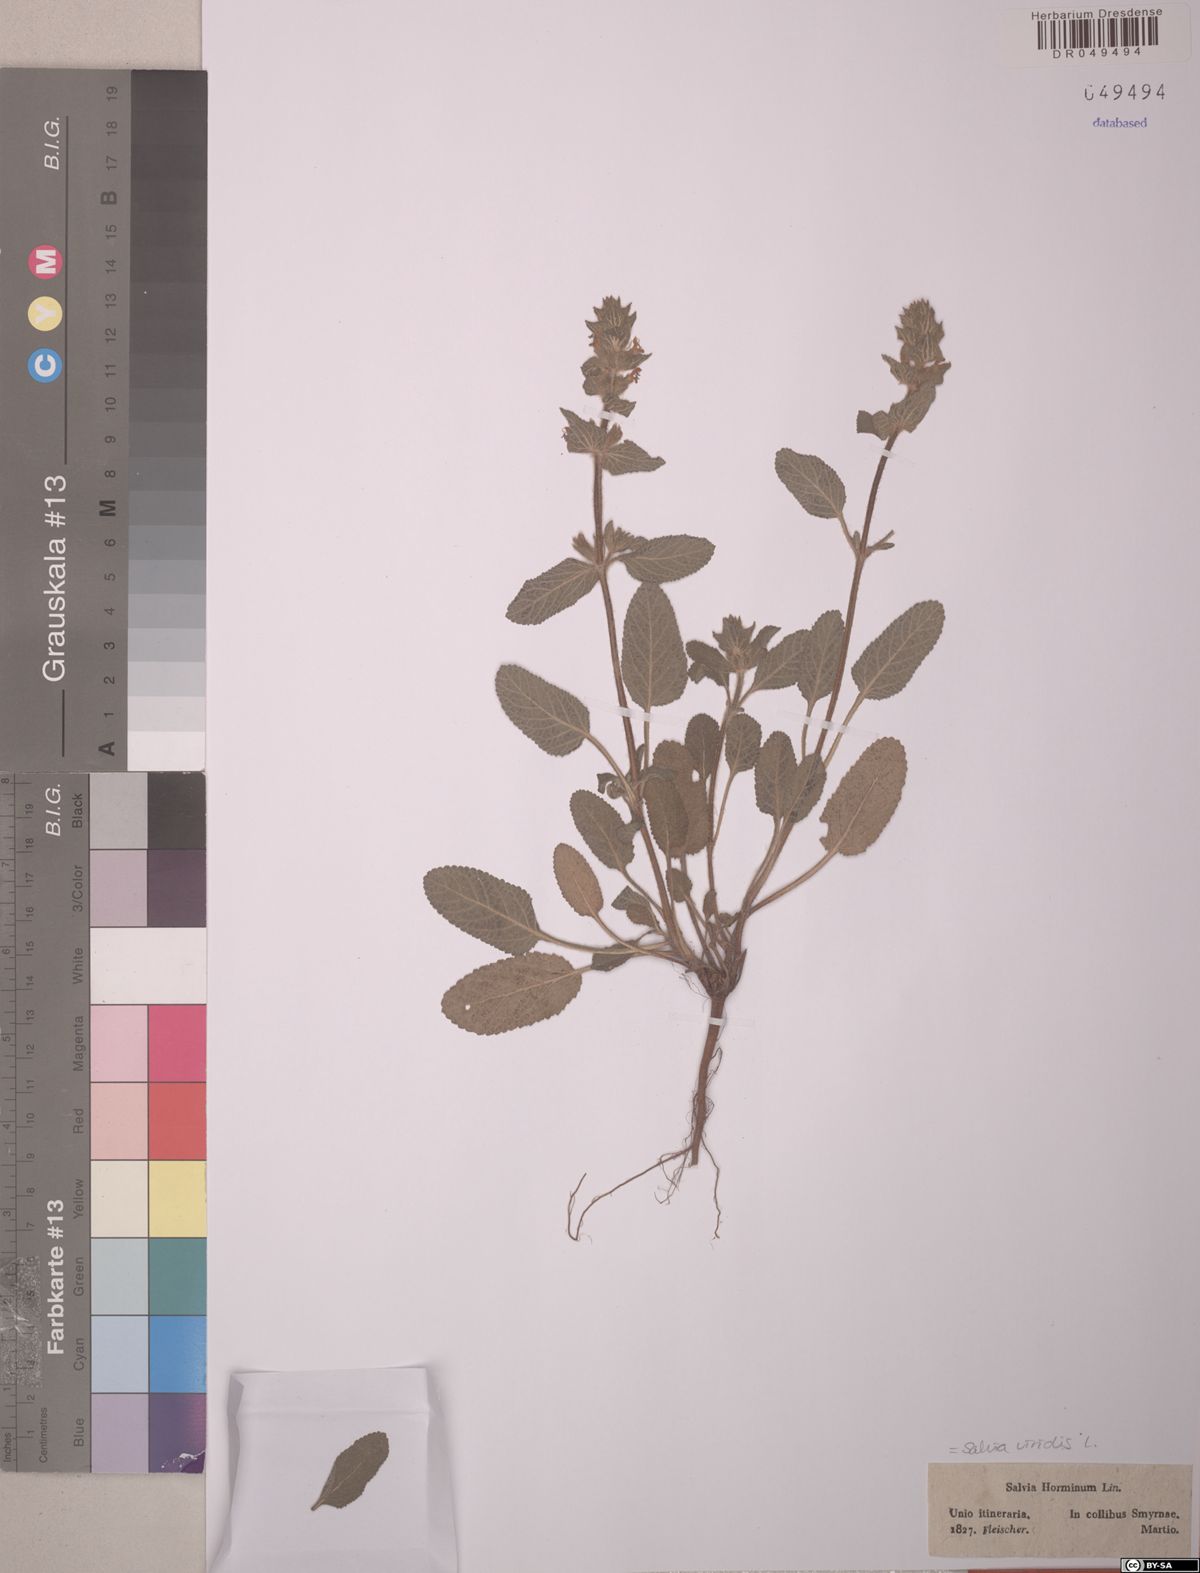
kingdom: Plantae
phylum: Tracheophyta
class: Magnoliopsida
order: Lamiales
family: Lamiaceae
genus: Salvia
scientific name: Salvia viridis
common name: Annual clary
